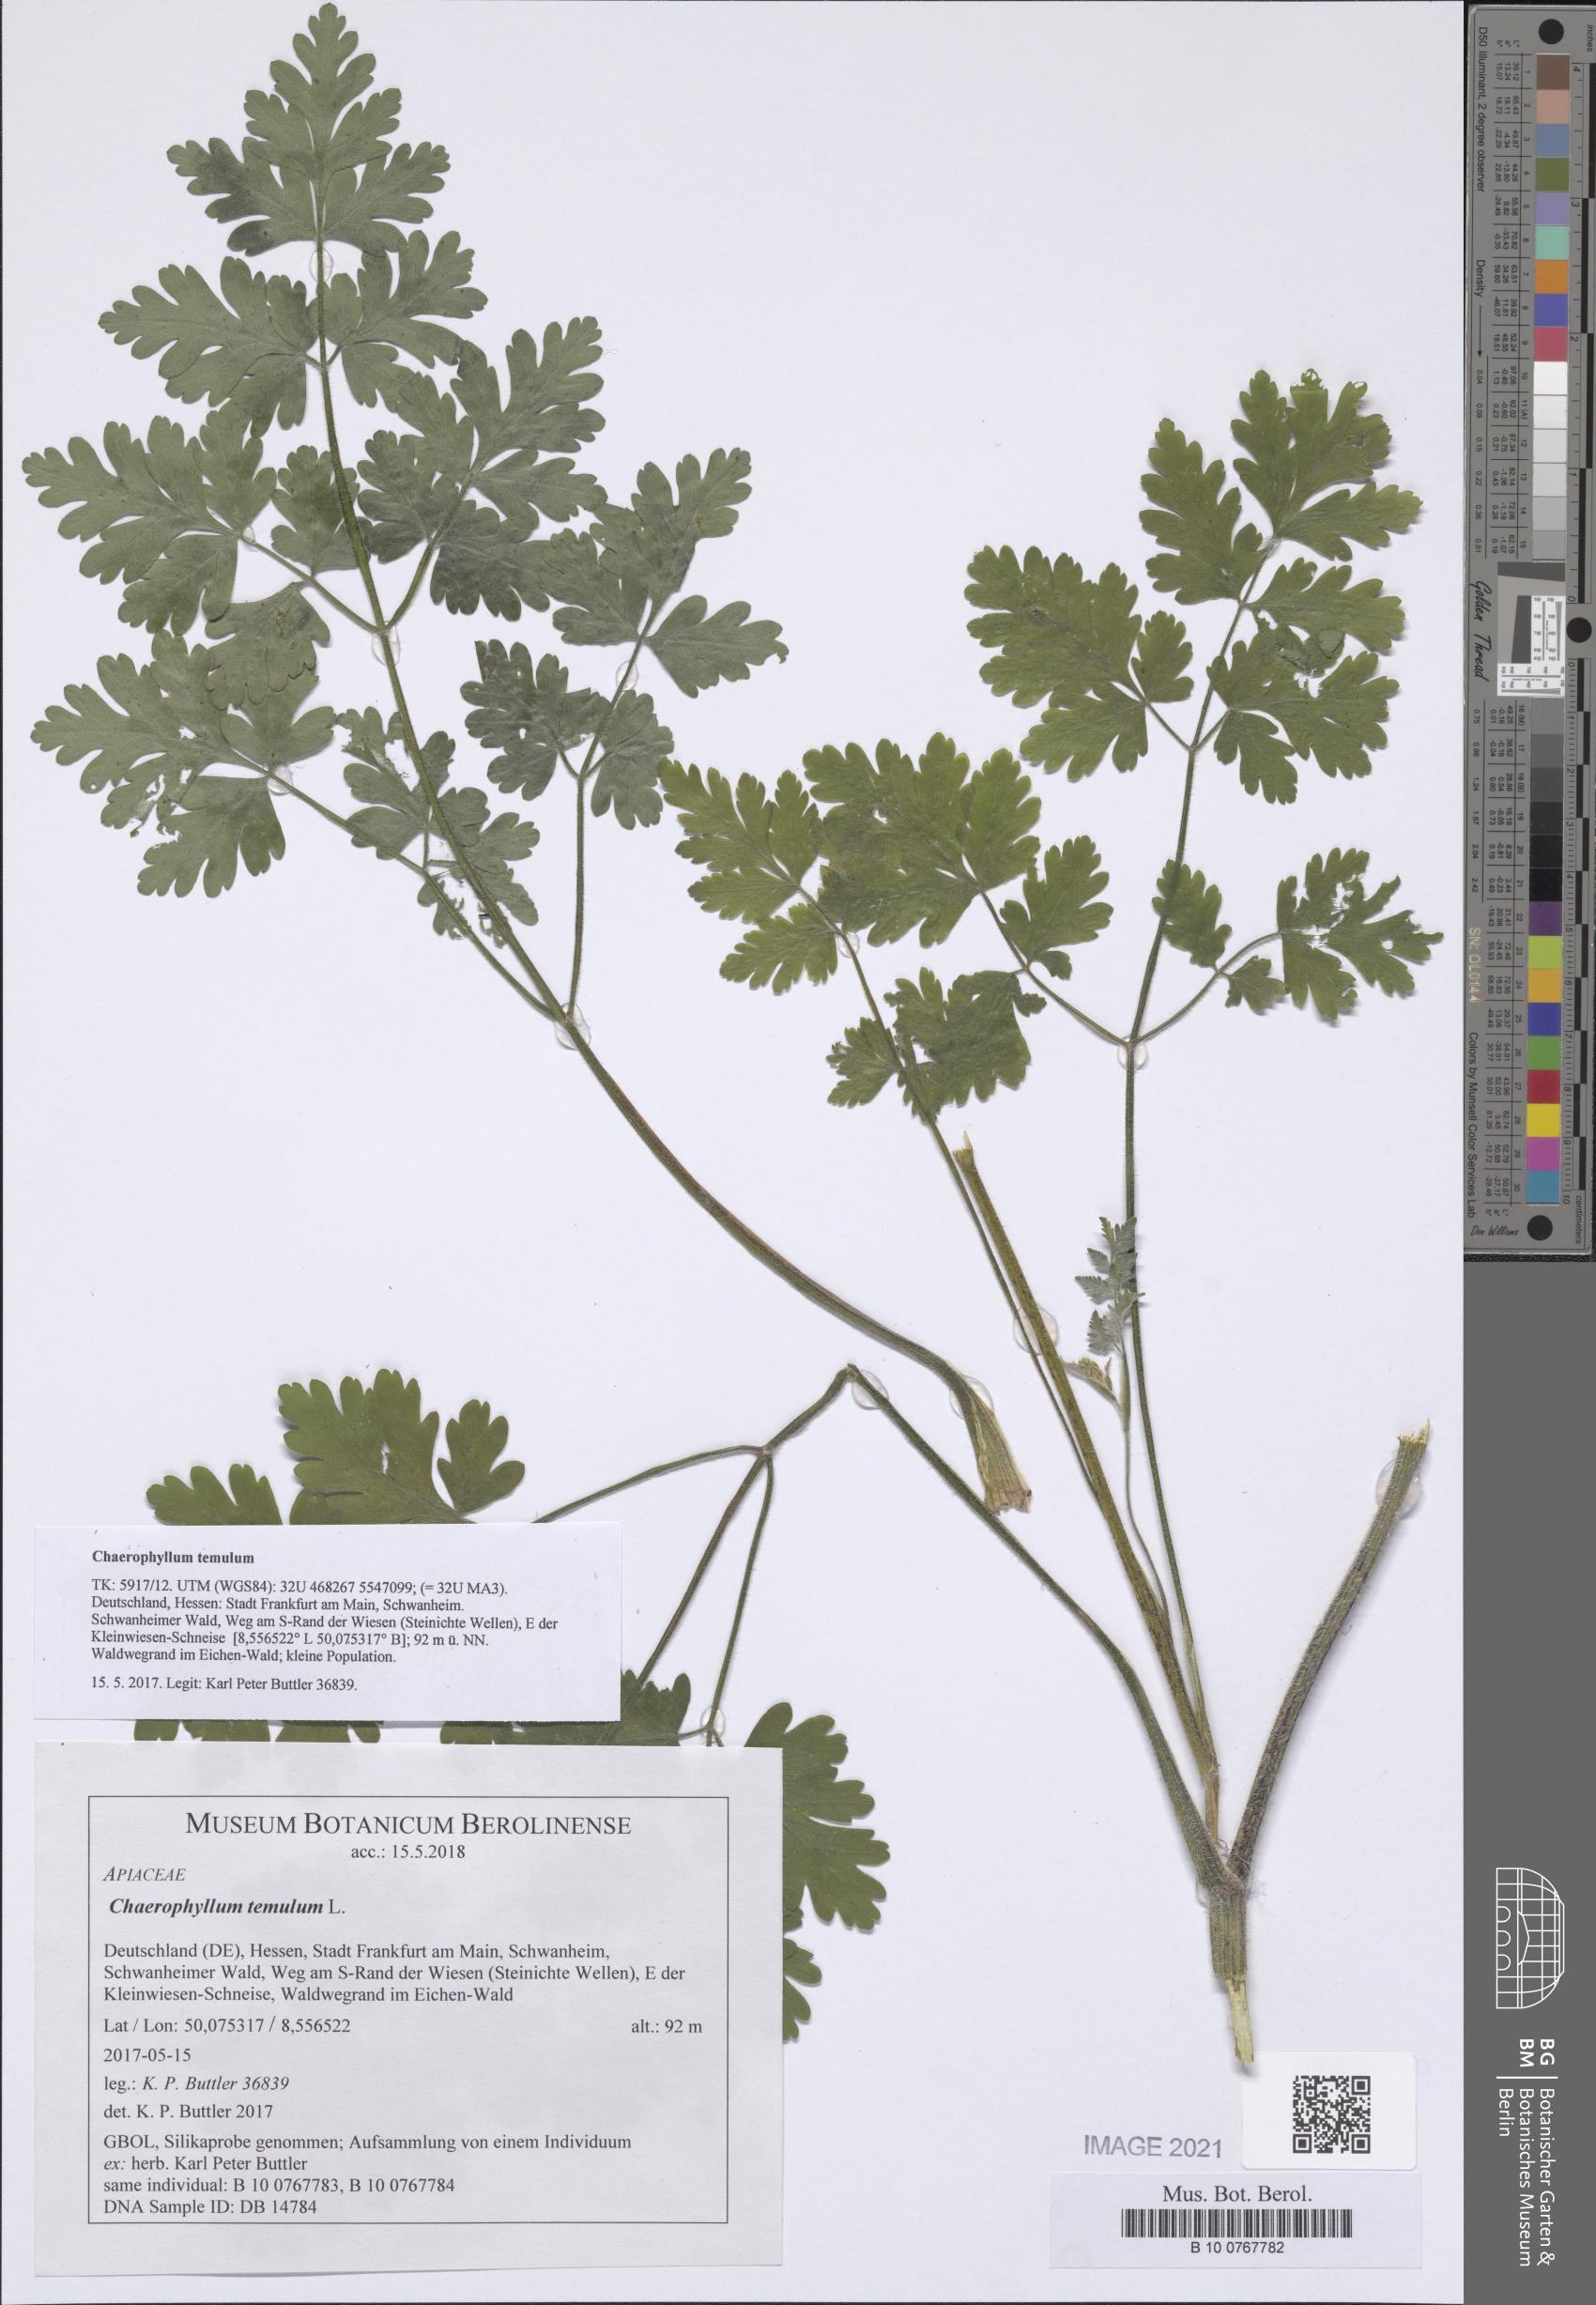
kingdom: Plantae
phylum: Tracheophyta
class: Magnoliopsida
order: Apiales
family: Apiaceae
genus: Chaerophyllum
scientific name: Chaerophyllum temulum
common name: Rough chervil
